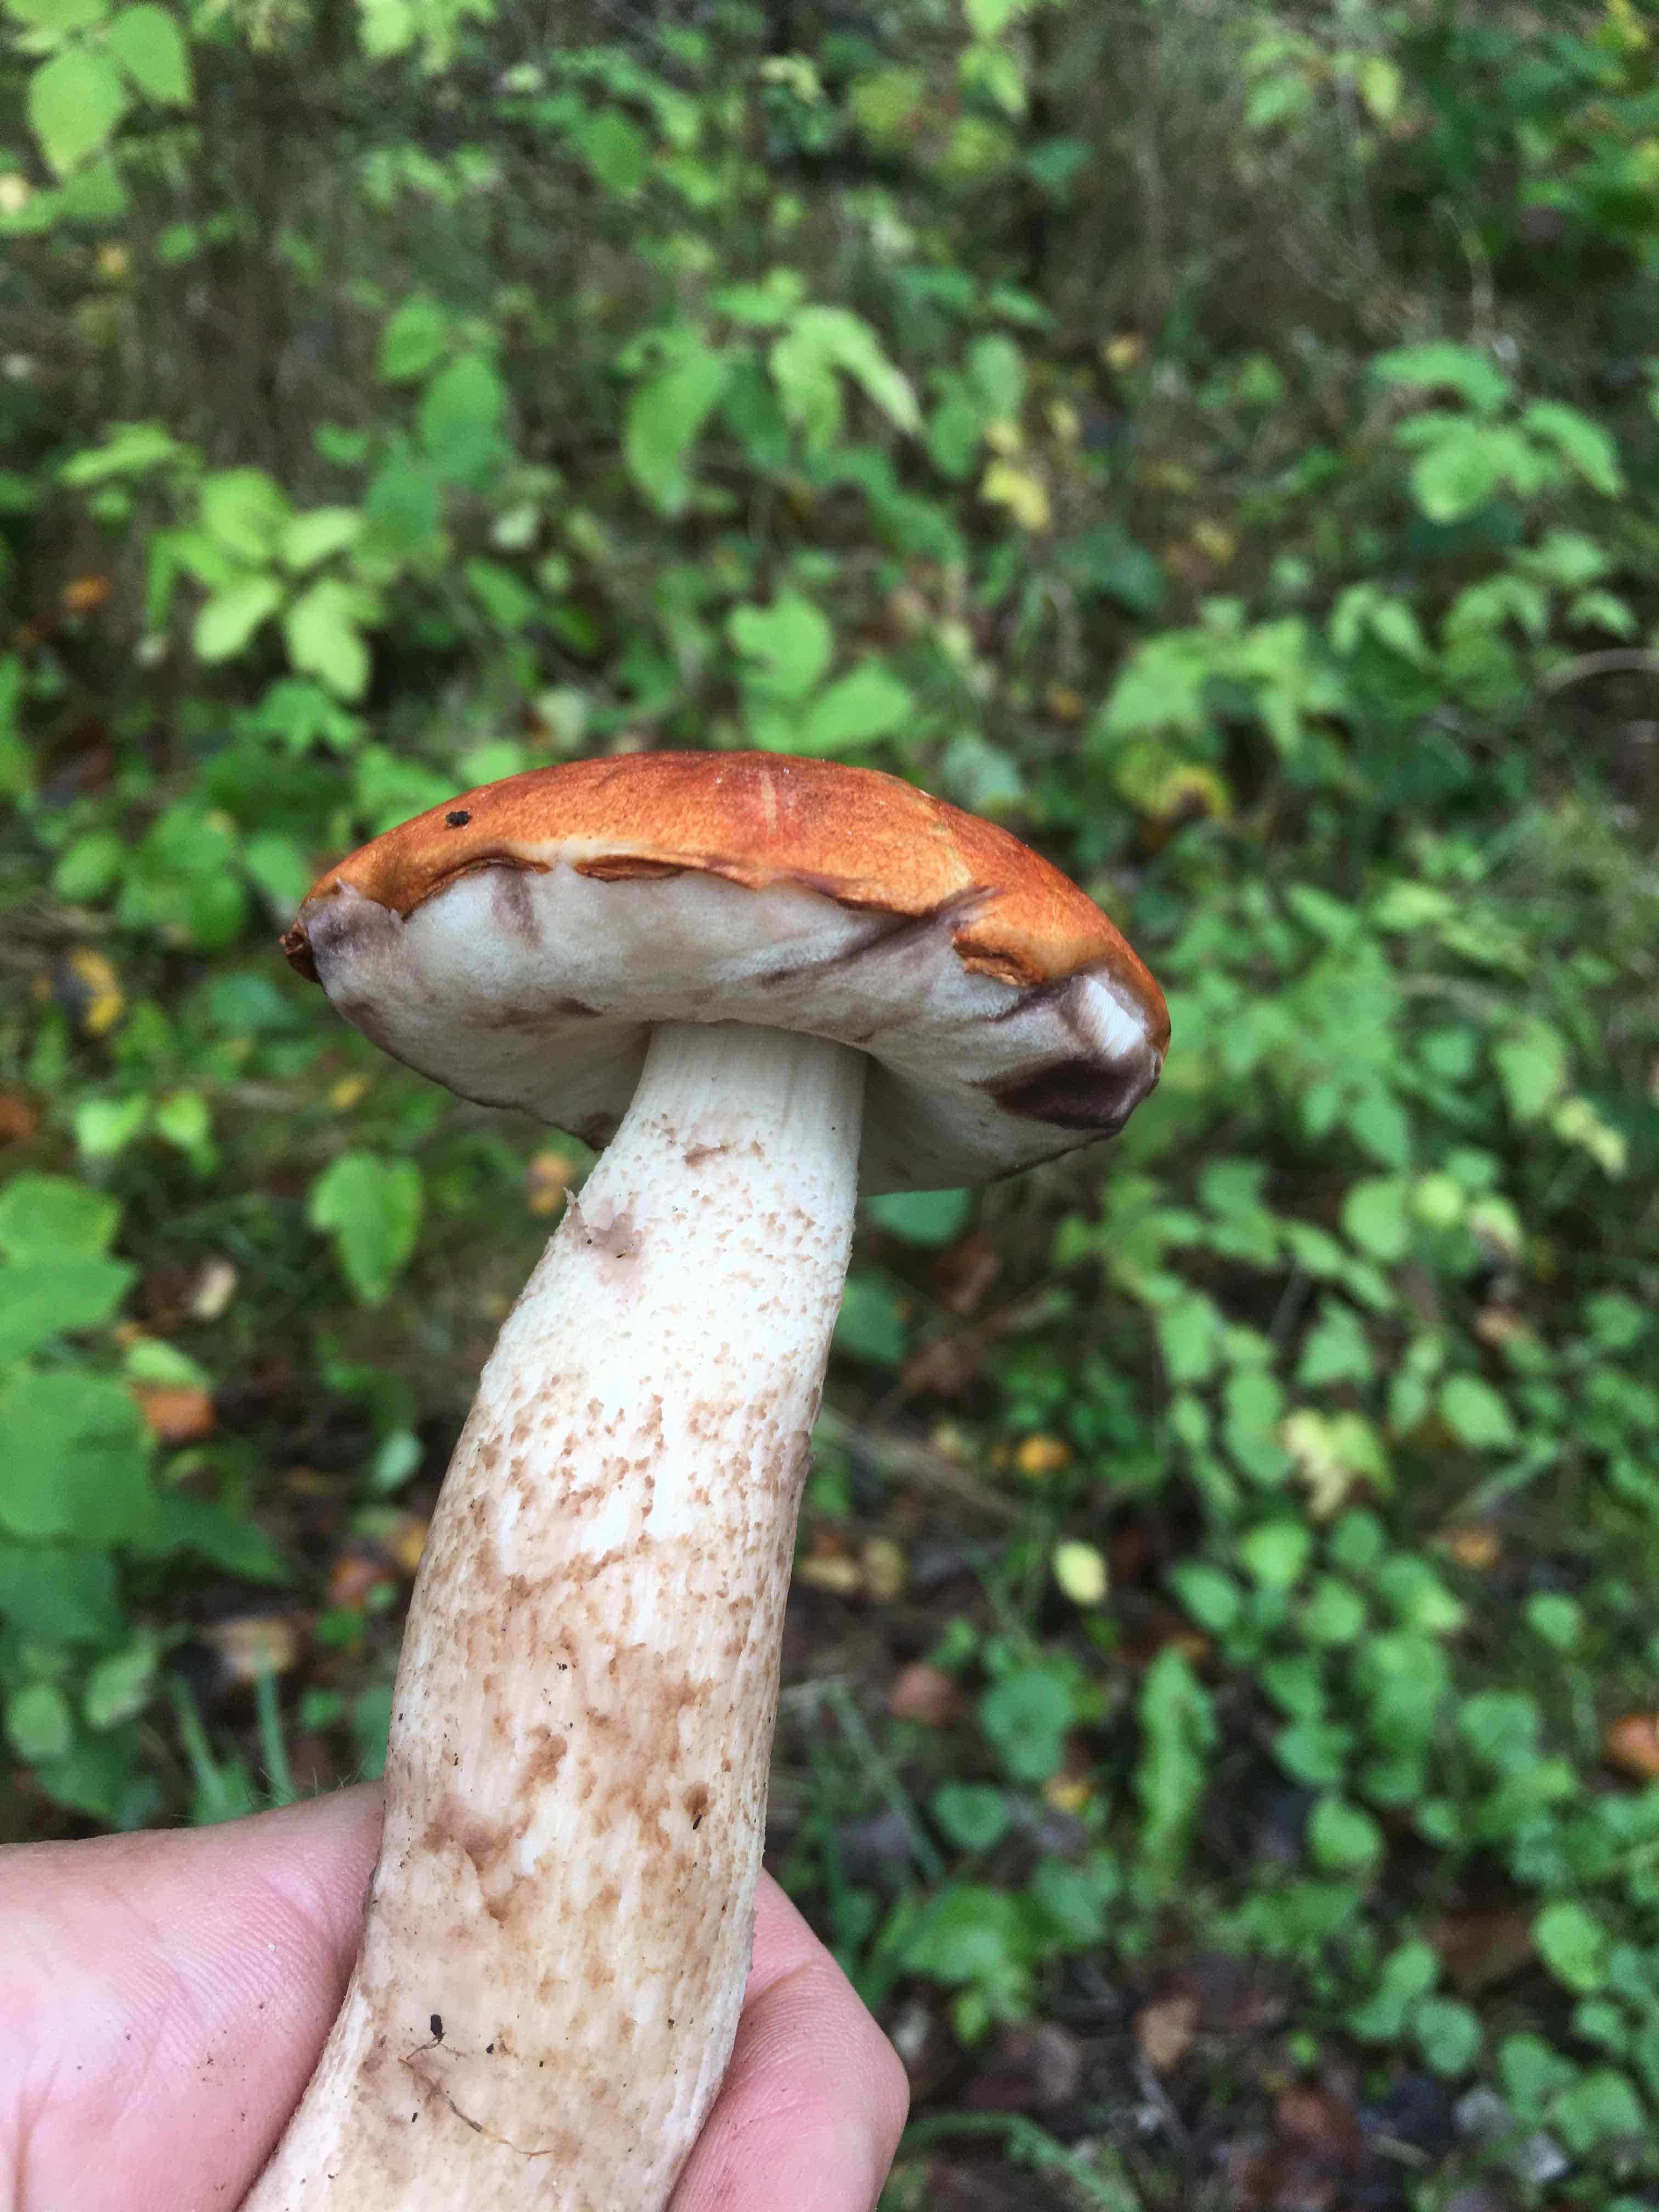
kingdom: Fungi
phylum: Basidiomycota
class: Agaricomycetes
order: Boletales
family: Boletaceae
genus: Leccinum
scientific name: Leccinum albostipitatum
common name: aspe-skælrørhat
